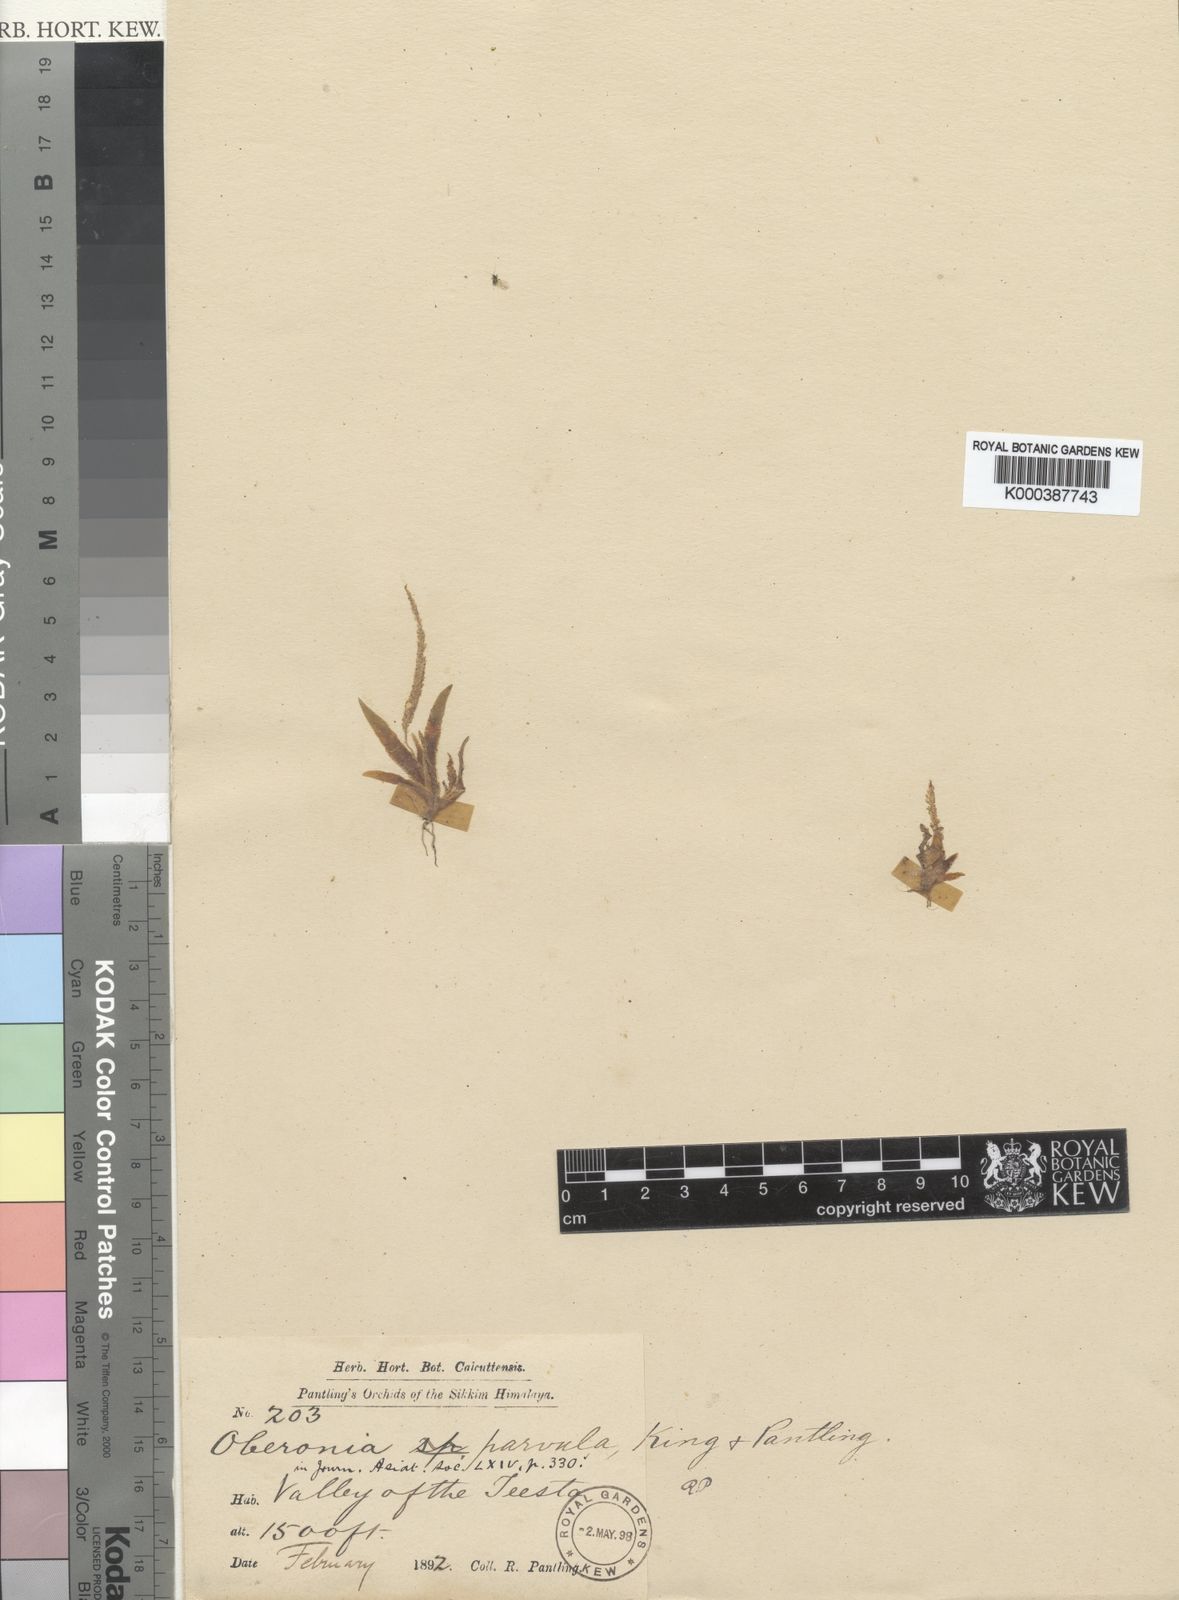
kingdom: Plantae
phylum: Tracheophyta
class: Liliopsida
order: Asparagales
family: Orchidaceae
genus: Oberonia
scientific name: Oberonia brachystachys
